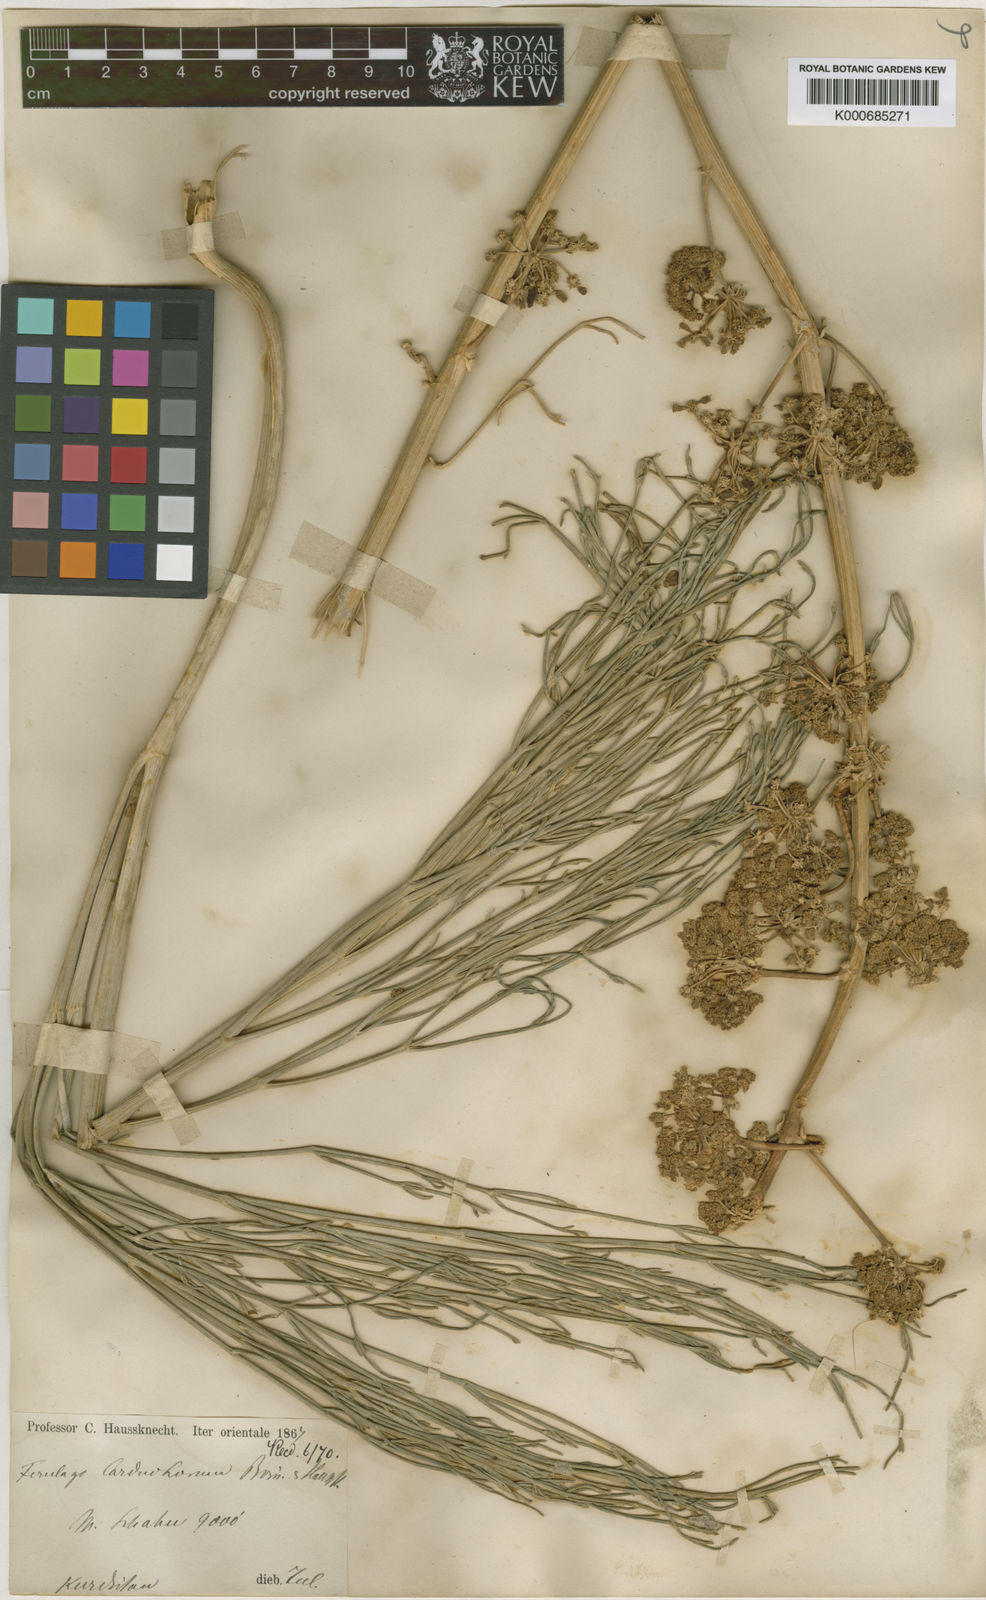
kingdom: Plantae
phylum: Tracheophyta
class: Magnoliopsida
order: Apiales
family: Apiaceae
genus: Ferulago
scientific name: Ferulago carduchorum
